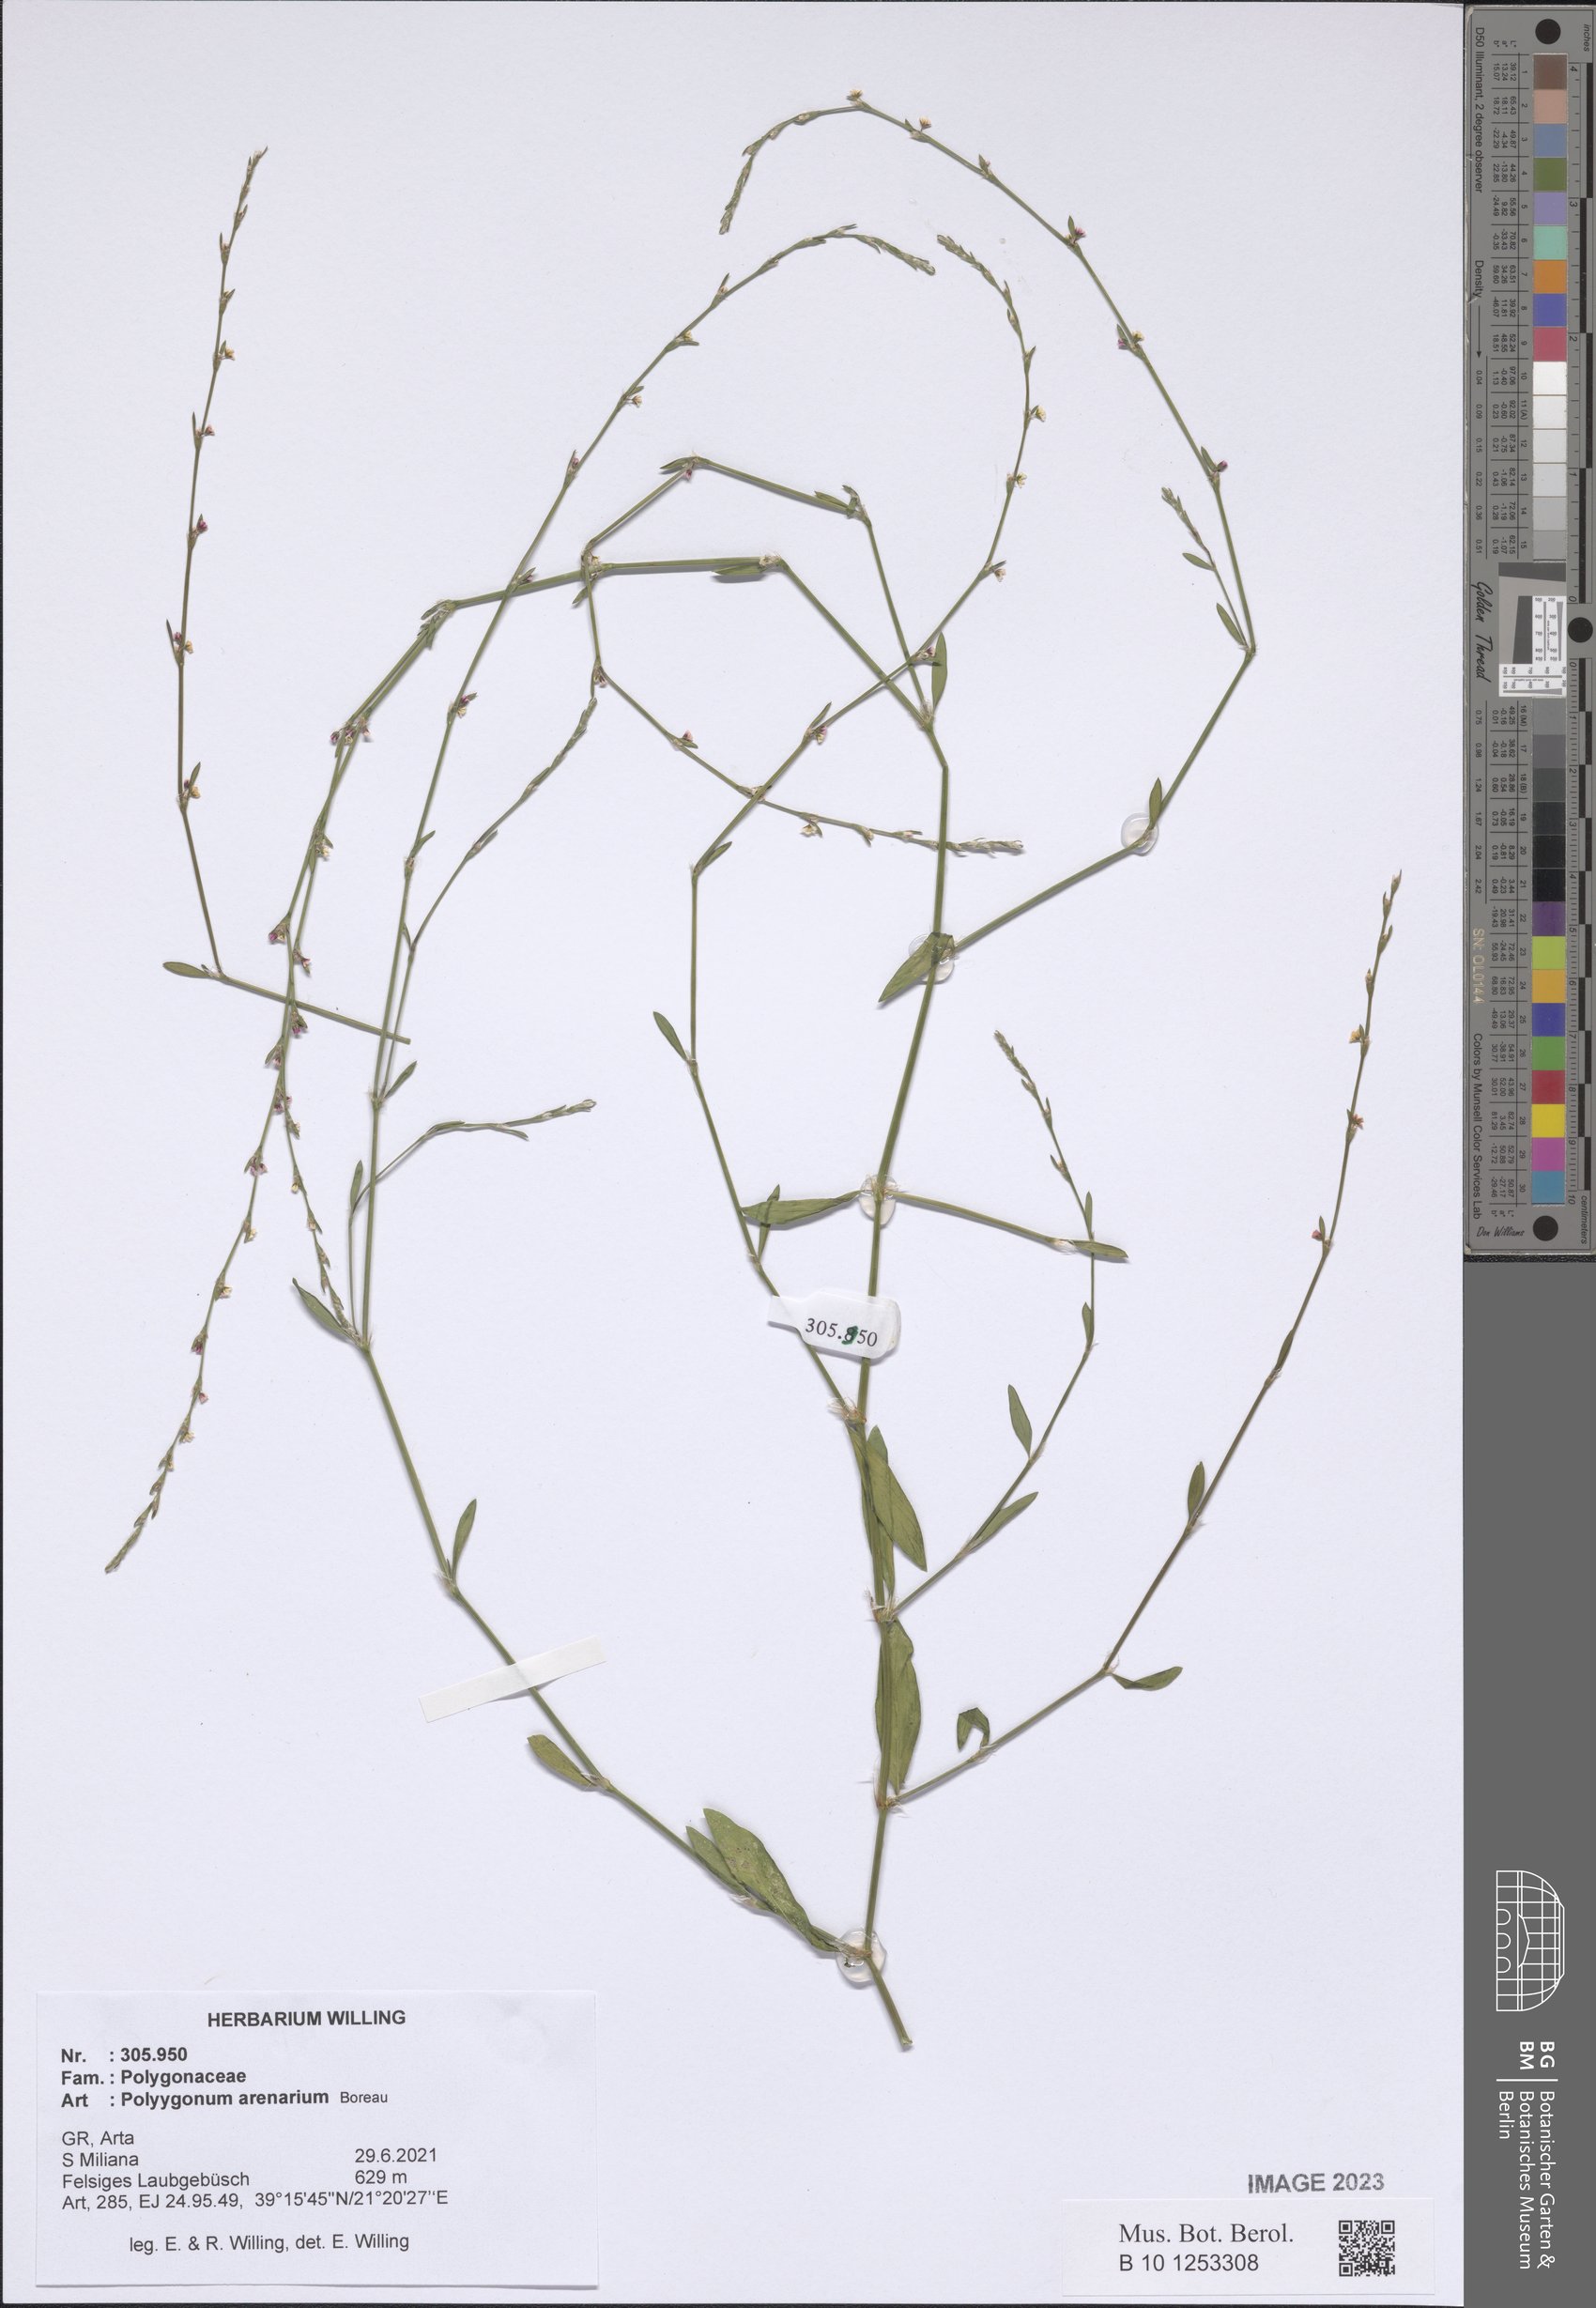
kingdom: Plantae
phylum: Tracheophyta
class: Magnoliopsida
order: Caryophyllales
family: Polygonaceae
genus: Polygonum
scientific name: Polygonum arenarium
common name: Lesser red-knotgrass
